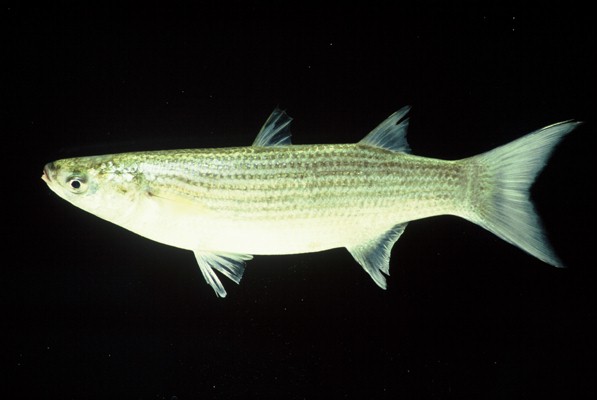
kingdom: Animalia
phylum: Chordata
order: Mugiliformes
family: Mugilidae
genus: Chelon
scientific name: Chelon tricuspidens
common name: Striped mullet
